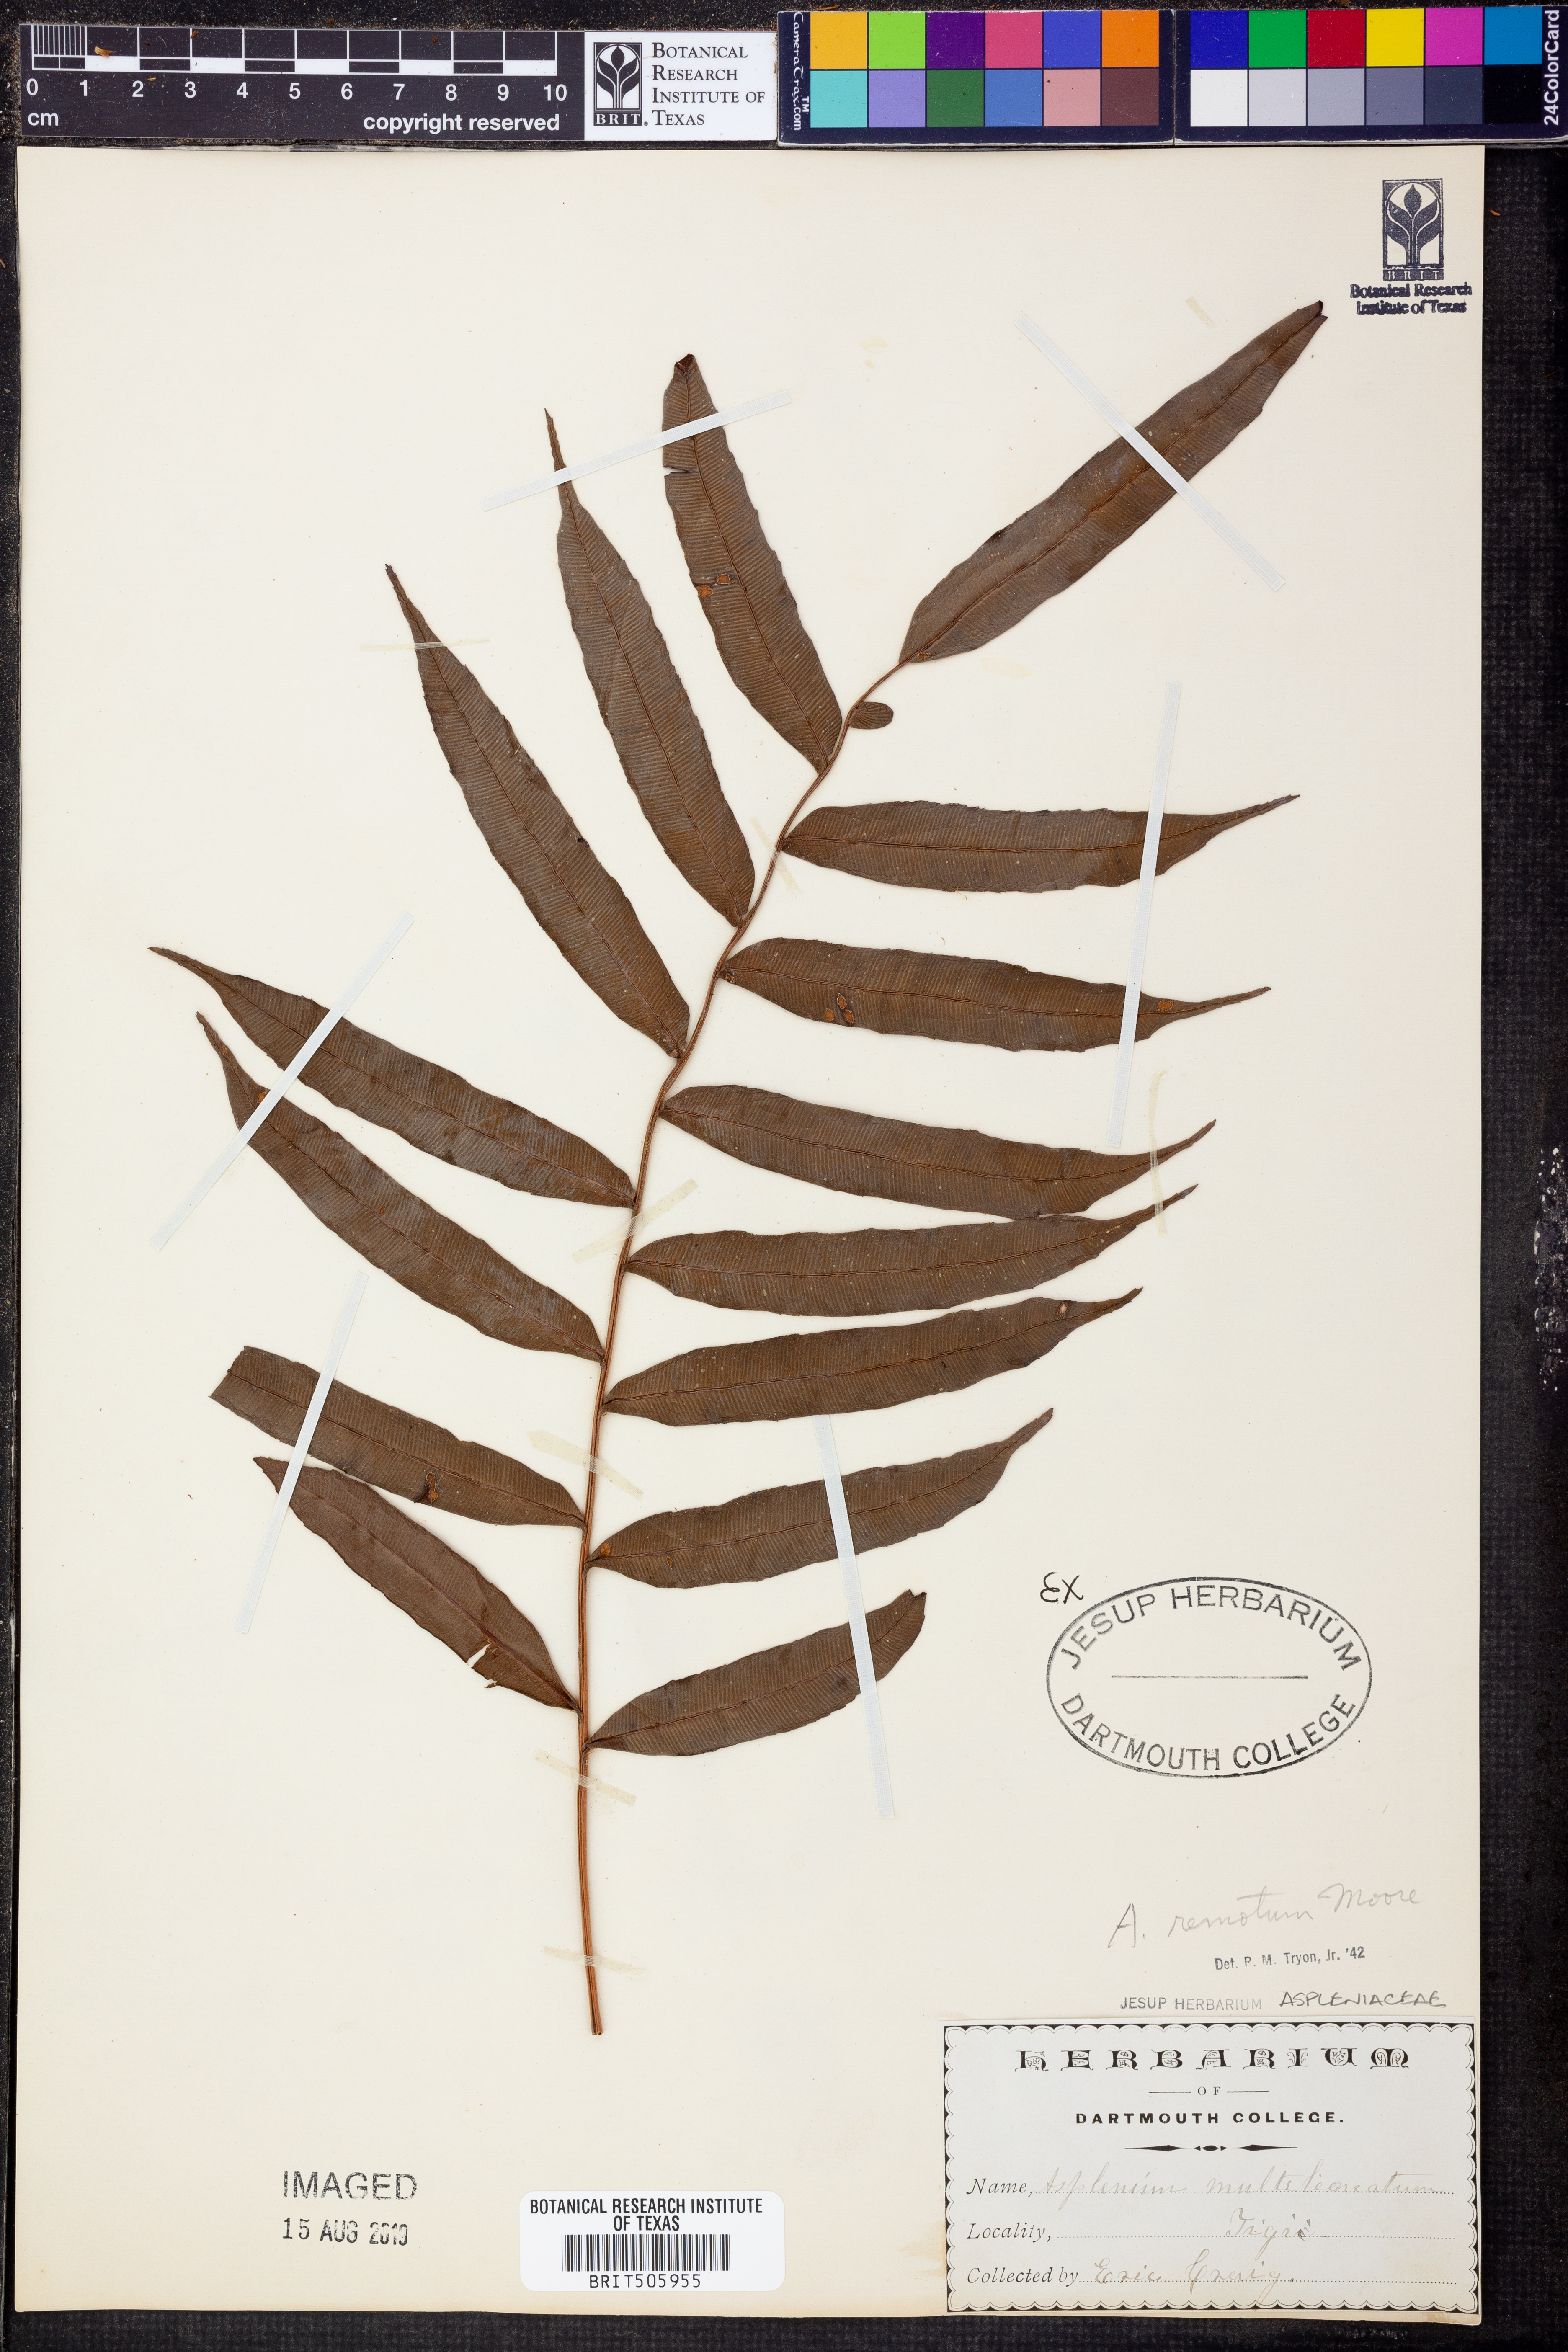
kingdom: Plantae
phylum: Tracheophyta
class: Polypodiopsida
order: Polypodiales
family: Aspleniaceae
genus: Asplenium
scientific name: Asplenium marattioides
